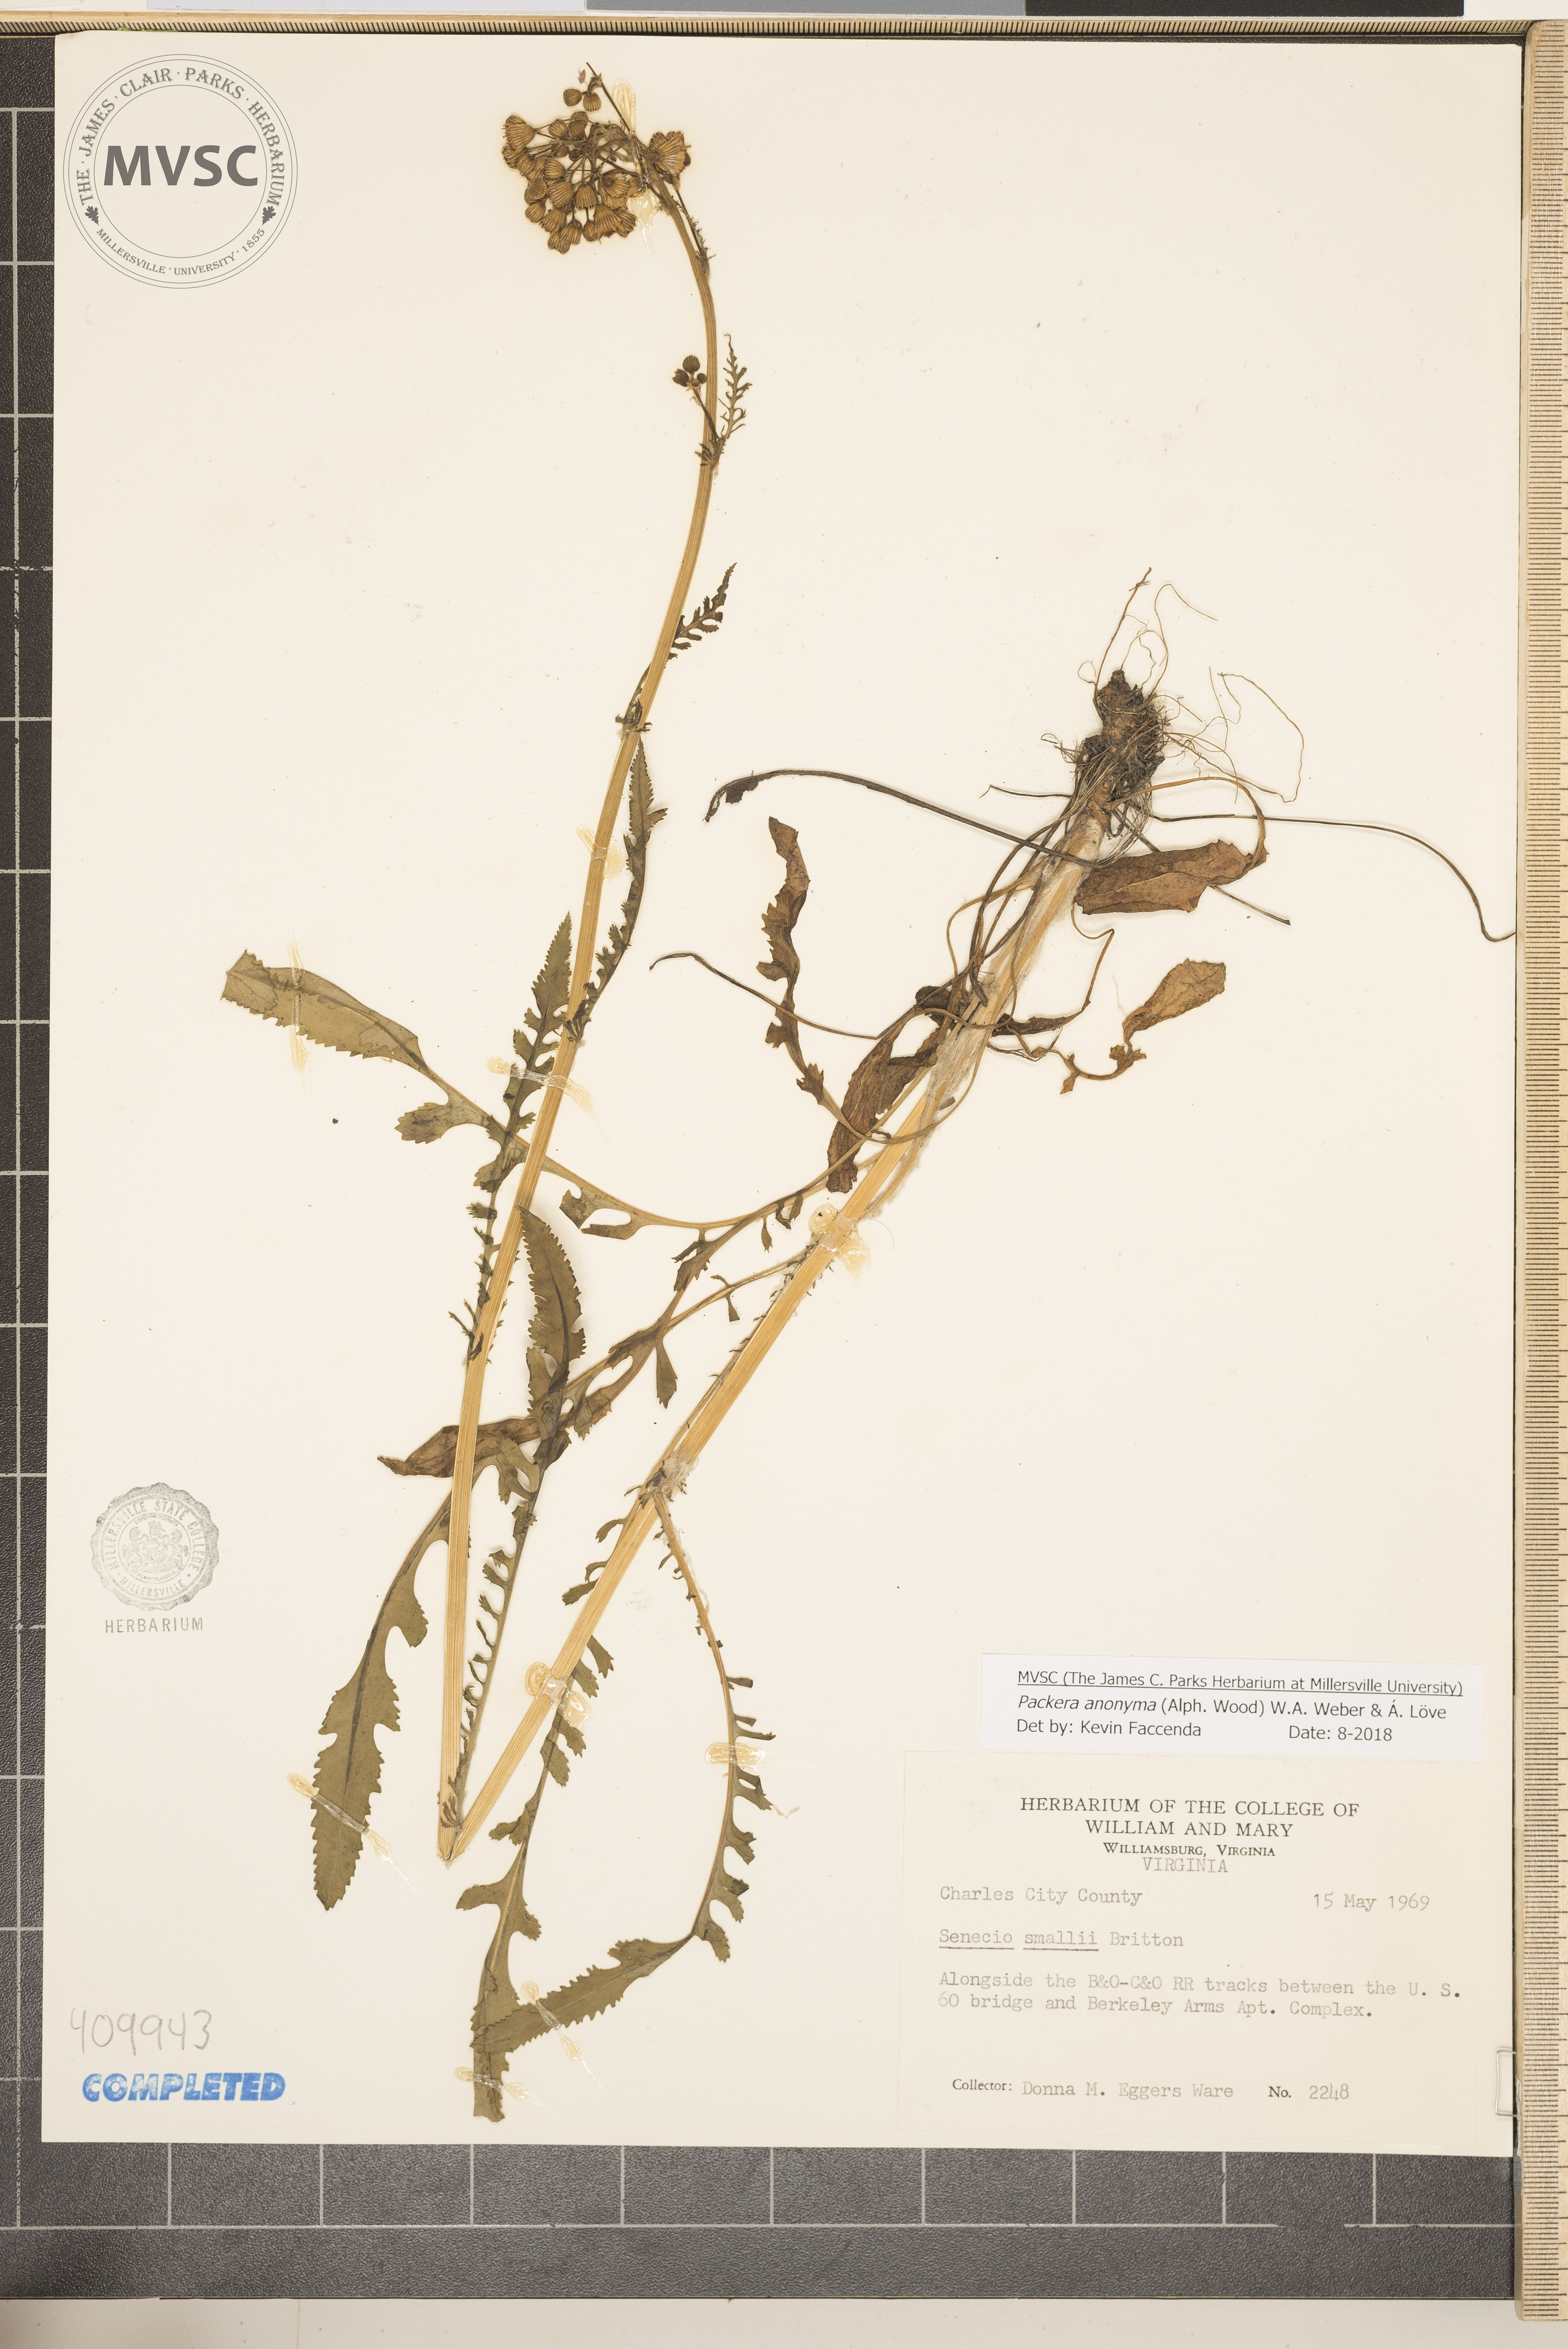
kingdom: Plantae
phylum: Tracheophyta
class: Magnoliopsida
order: Asterales
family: Asteraceae
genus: Packera
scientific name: Packera anonyma
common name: Small ragwort
